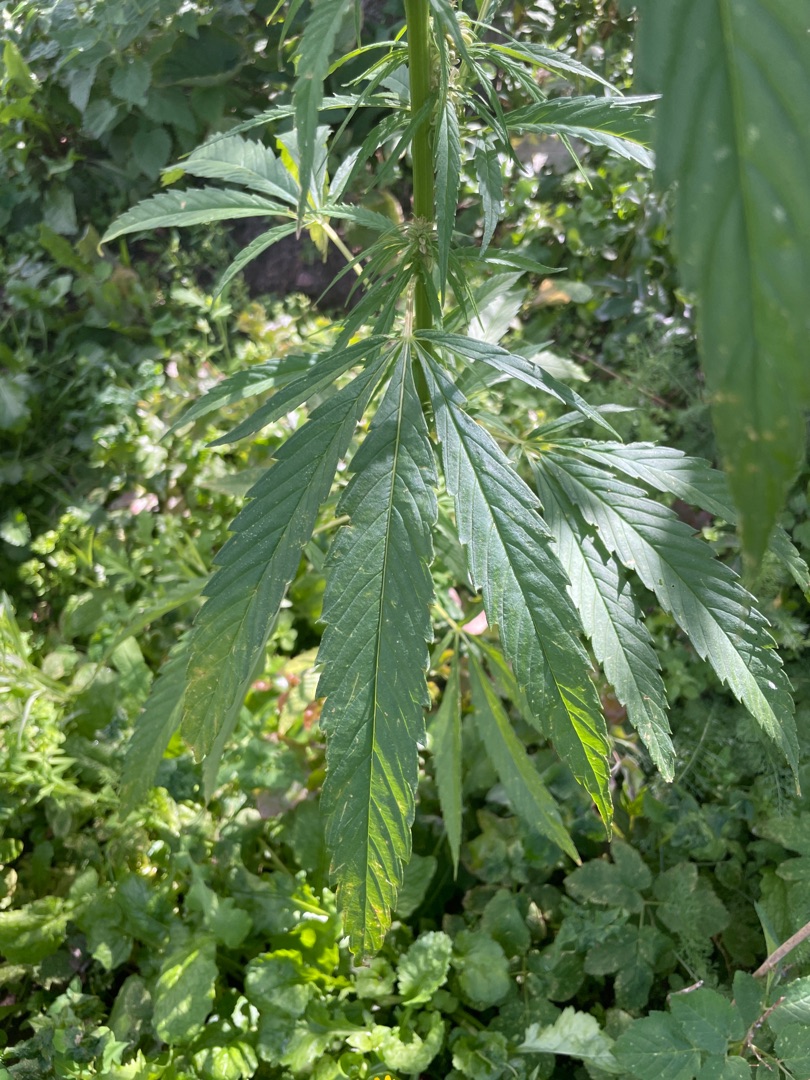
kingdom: Plantae
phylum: Tracheophyta
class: Magnoliopsida
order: Rosales
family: Cannabaceae
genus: Cannabis
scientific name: Cannabis sativa
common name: Hamp
